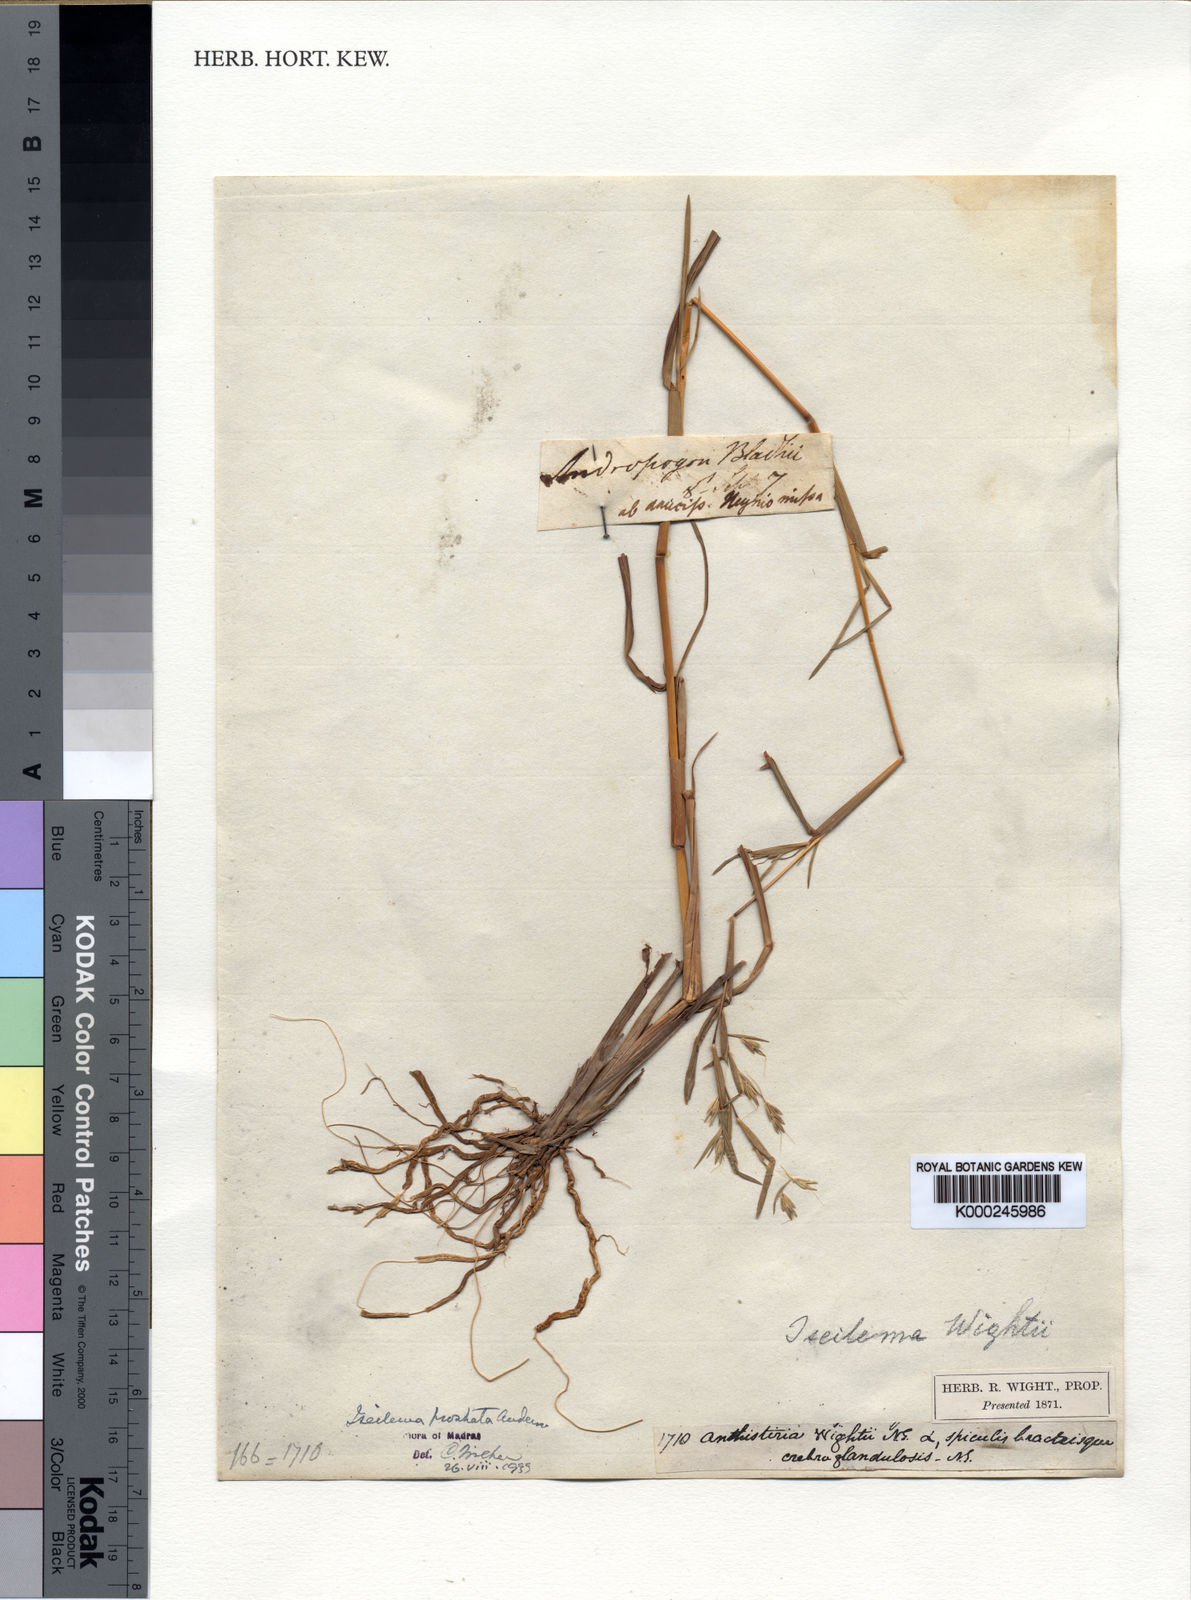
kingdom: Plantae
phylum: Tracheophyta
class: Liliopsida
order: Poales
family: Poaceae
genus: Iseilema
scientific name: Iseilema prostratum
